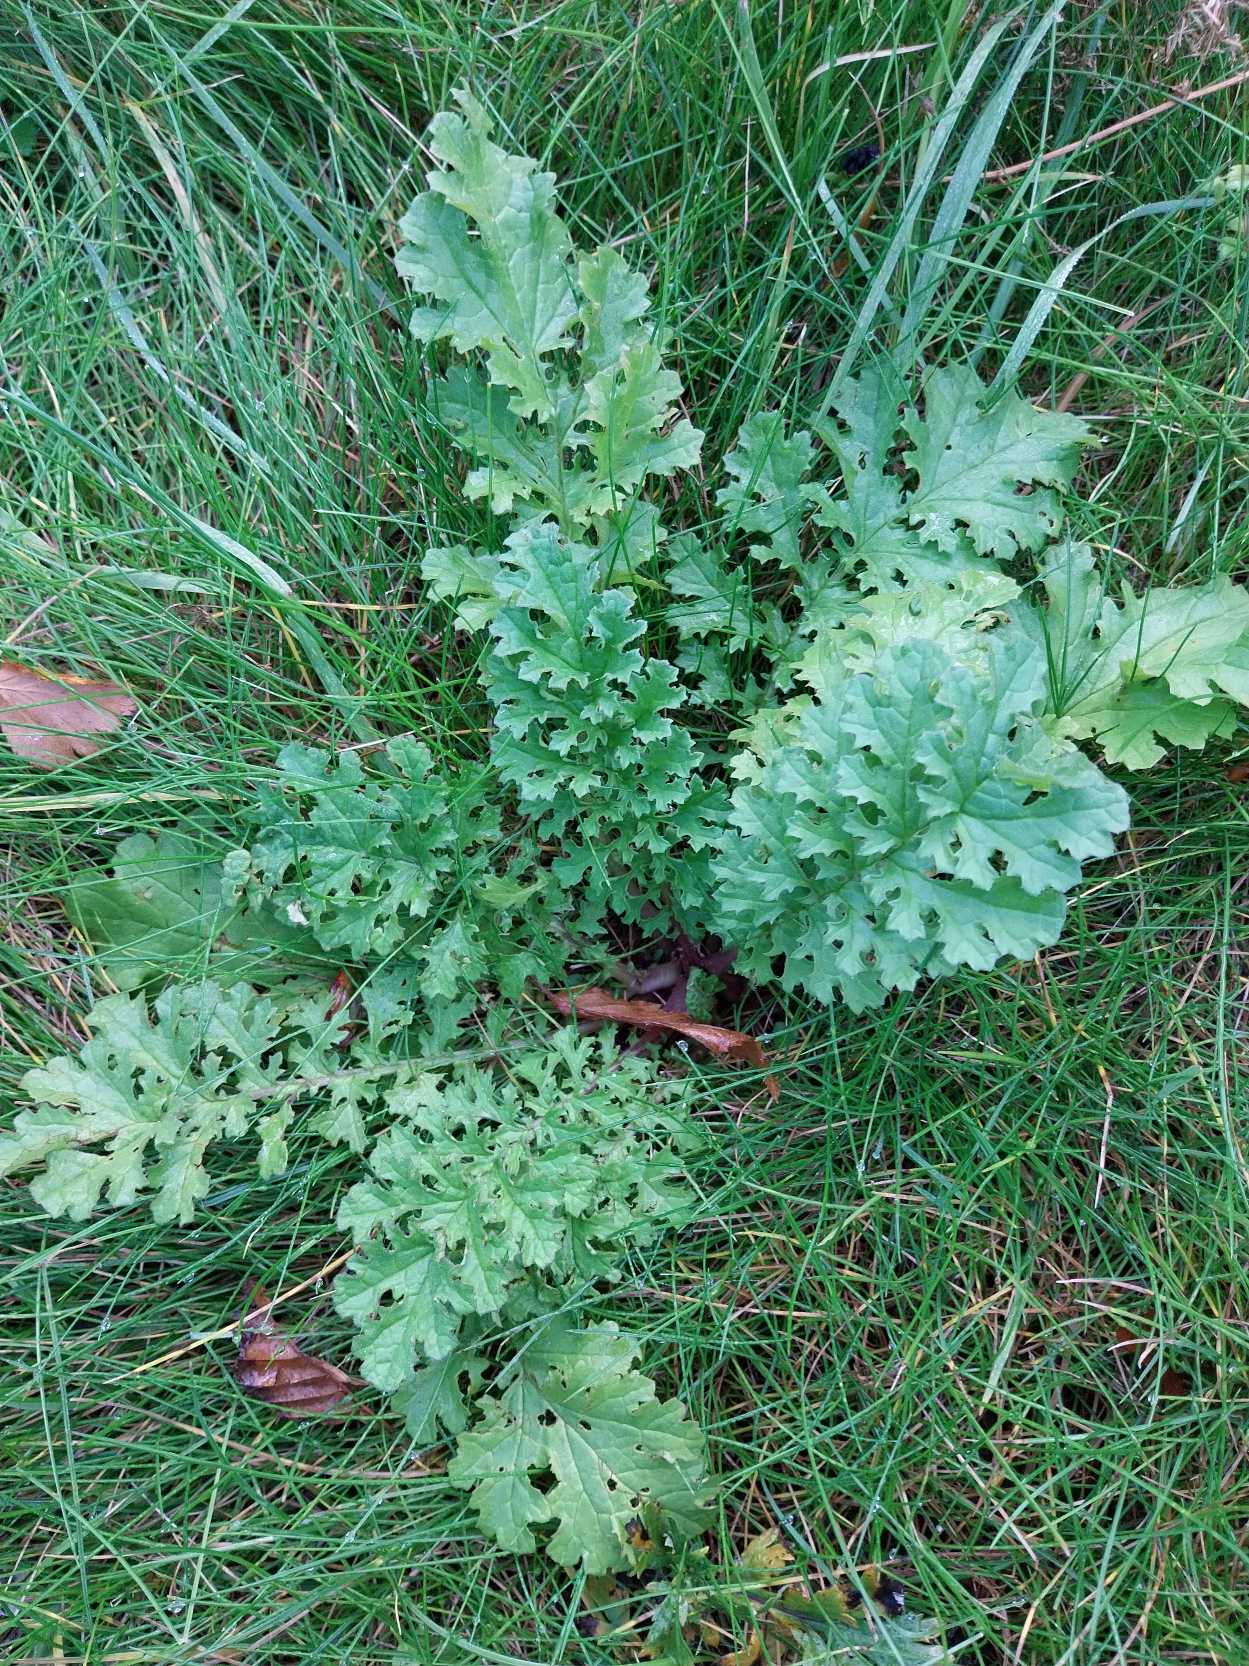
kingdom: Plantae
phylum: Tracheophyta
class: Magnoliopsida
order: Asterales
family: Asteraceae
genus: Jacobaea
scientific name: Jacobaea vulgaris
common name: Eng-brandbæger
